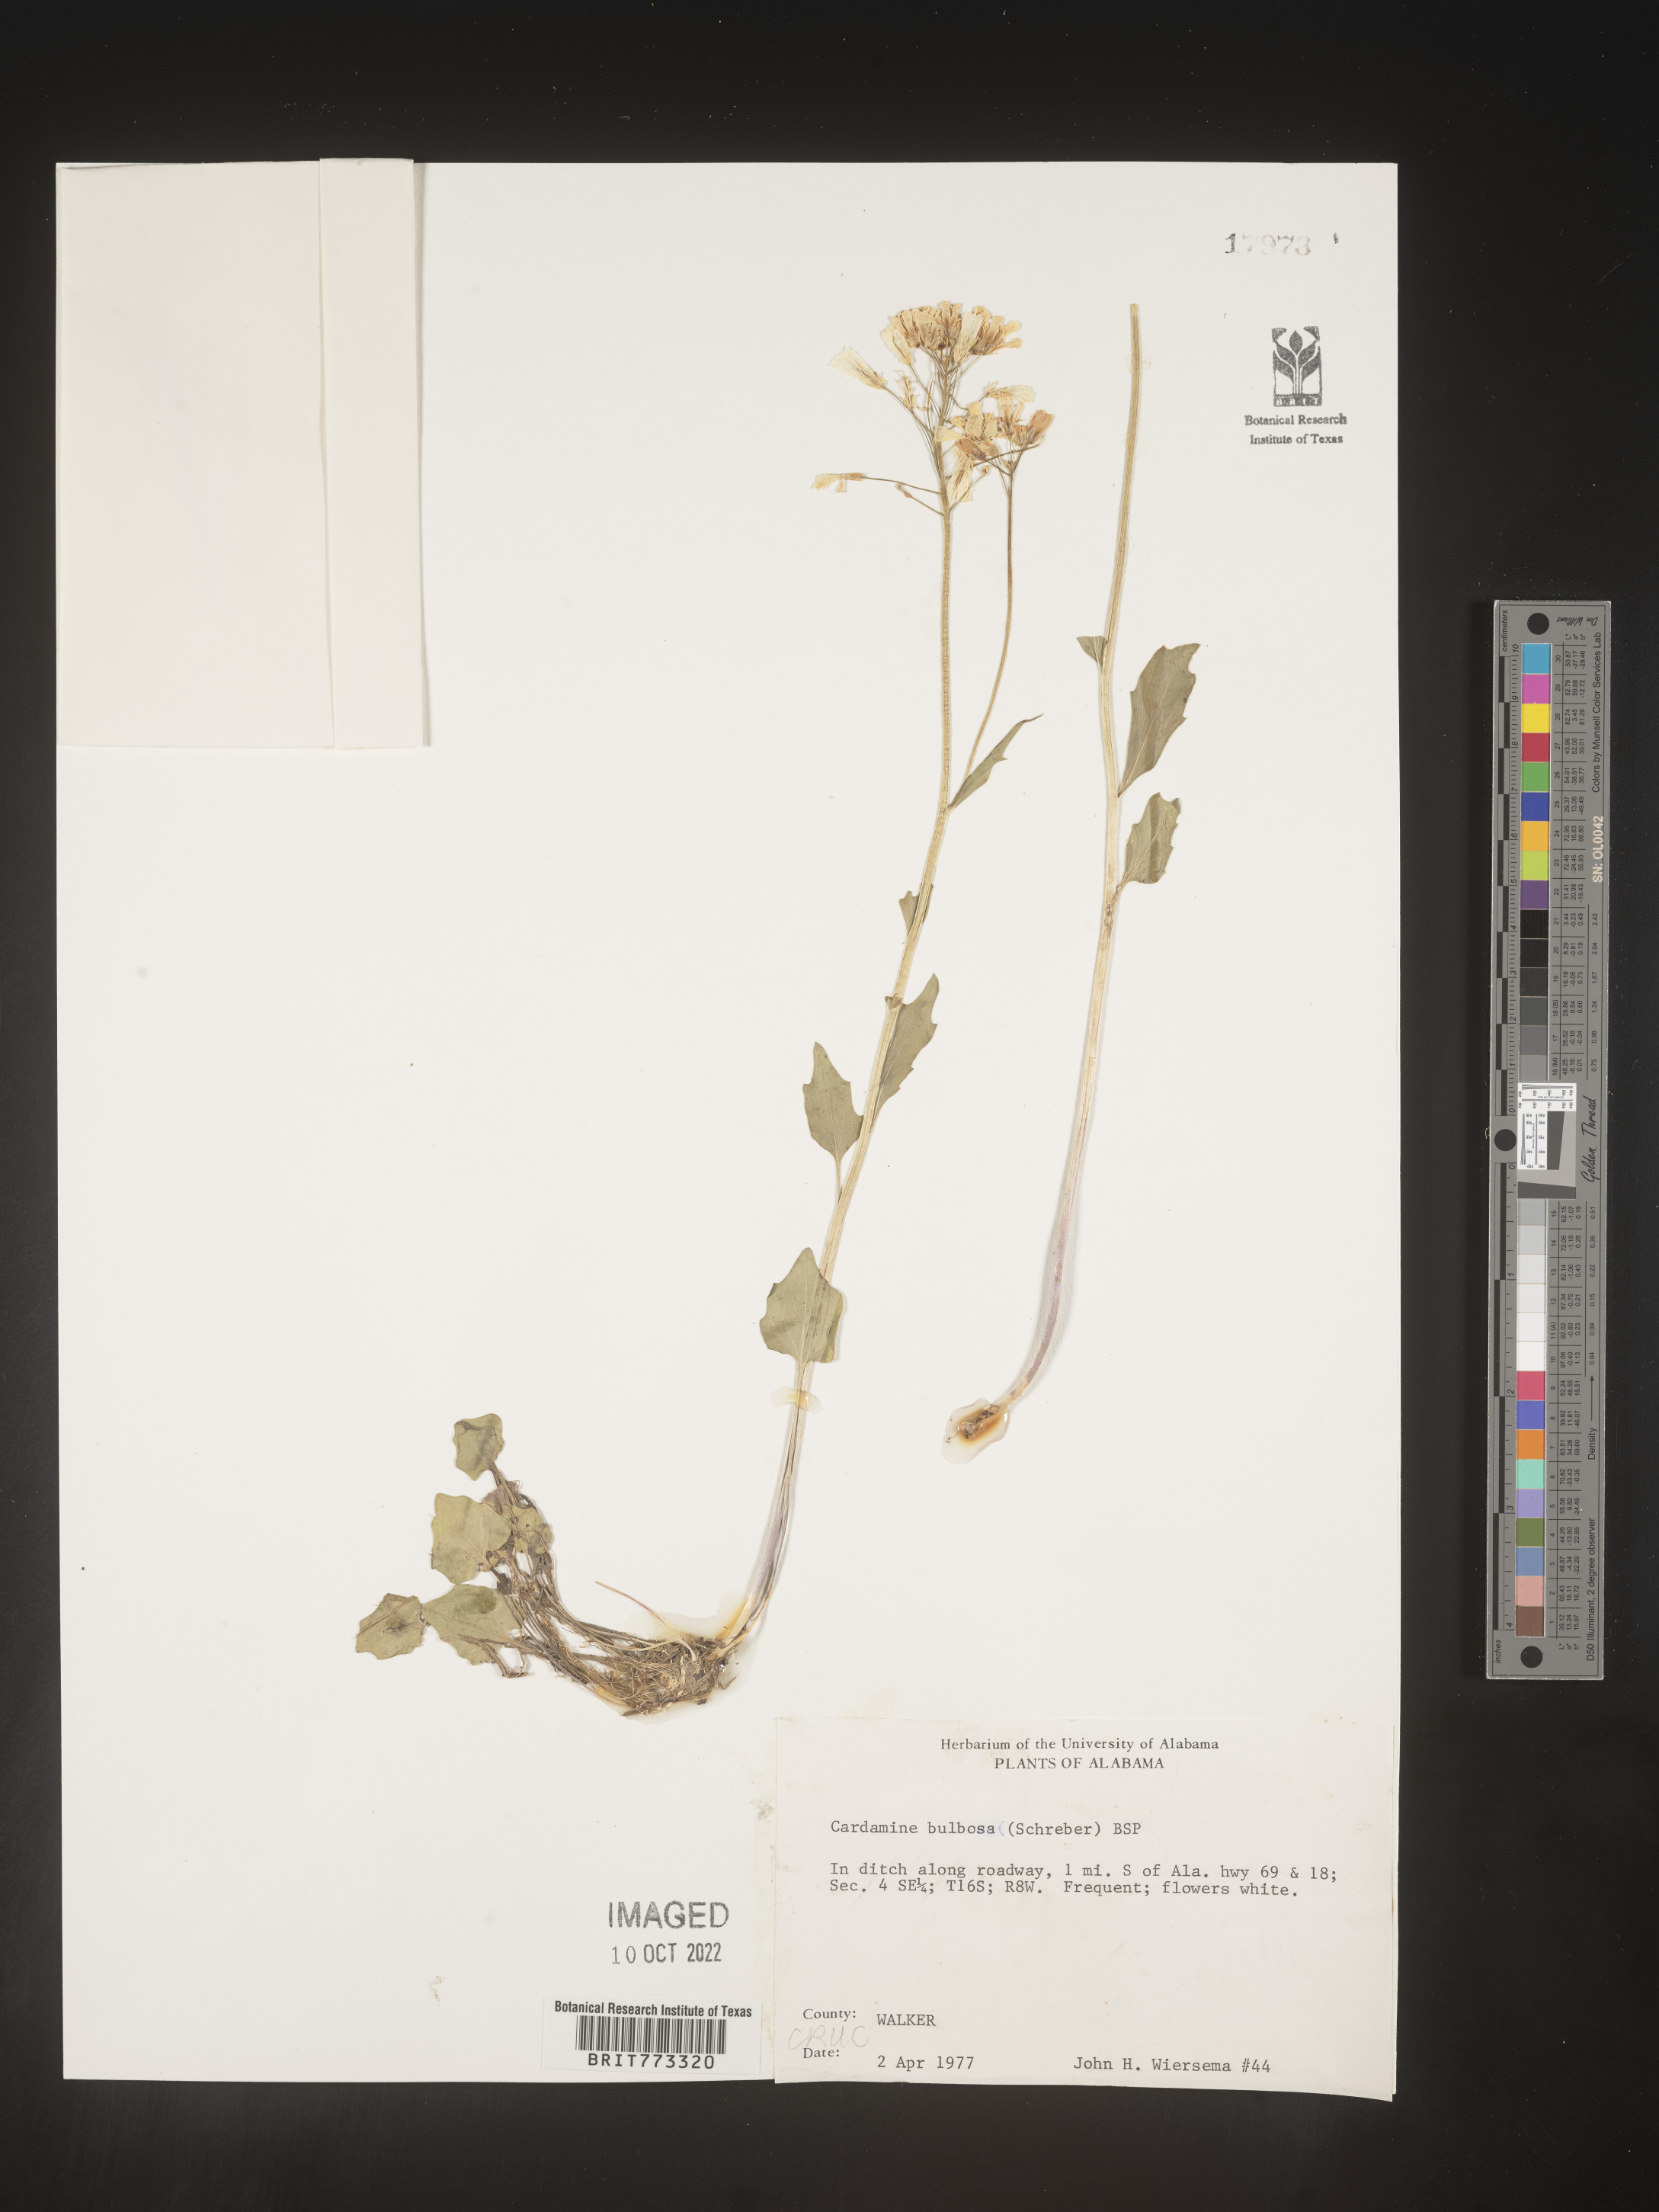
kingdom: Plantae
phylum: Tracheophyta
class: Magnoliopsida
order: Brassicales
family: Brassicaceae
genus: Cardamine
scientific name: Cardamine bulbosa
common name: Spring cress
